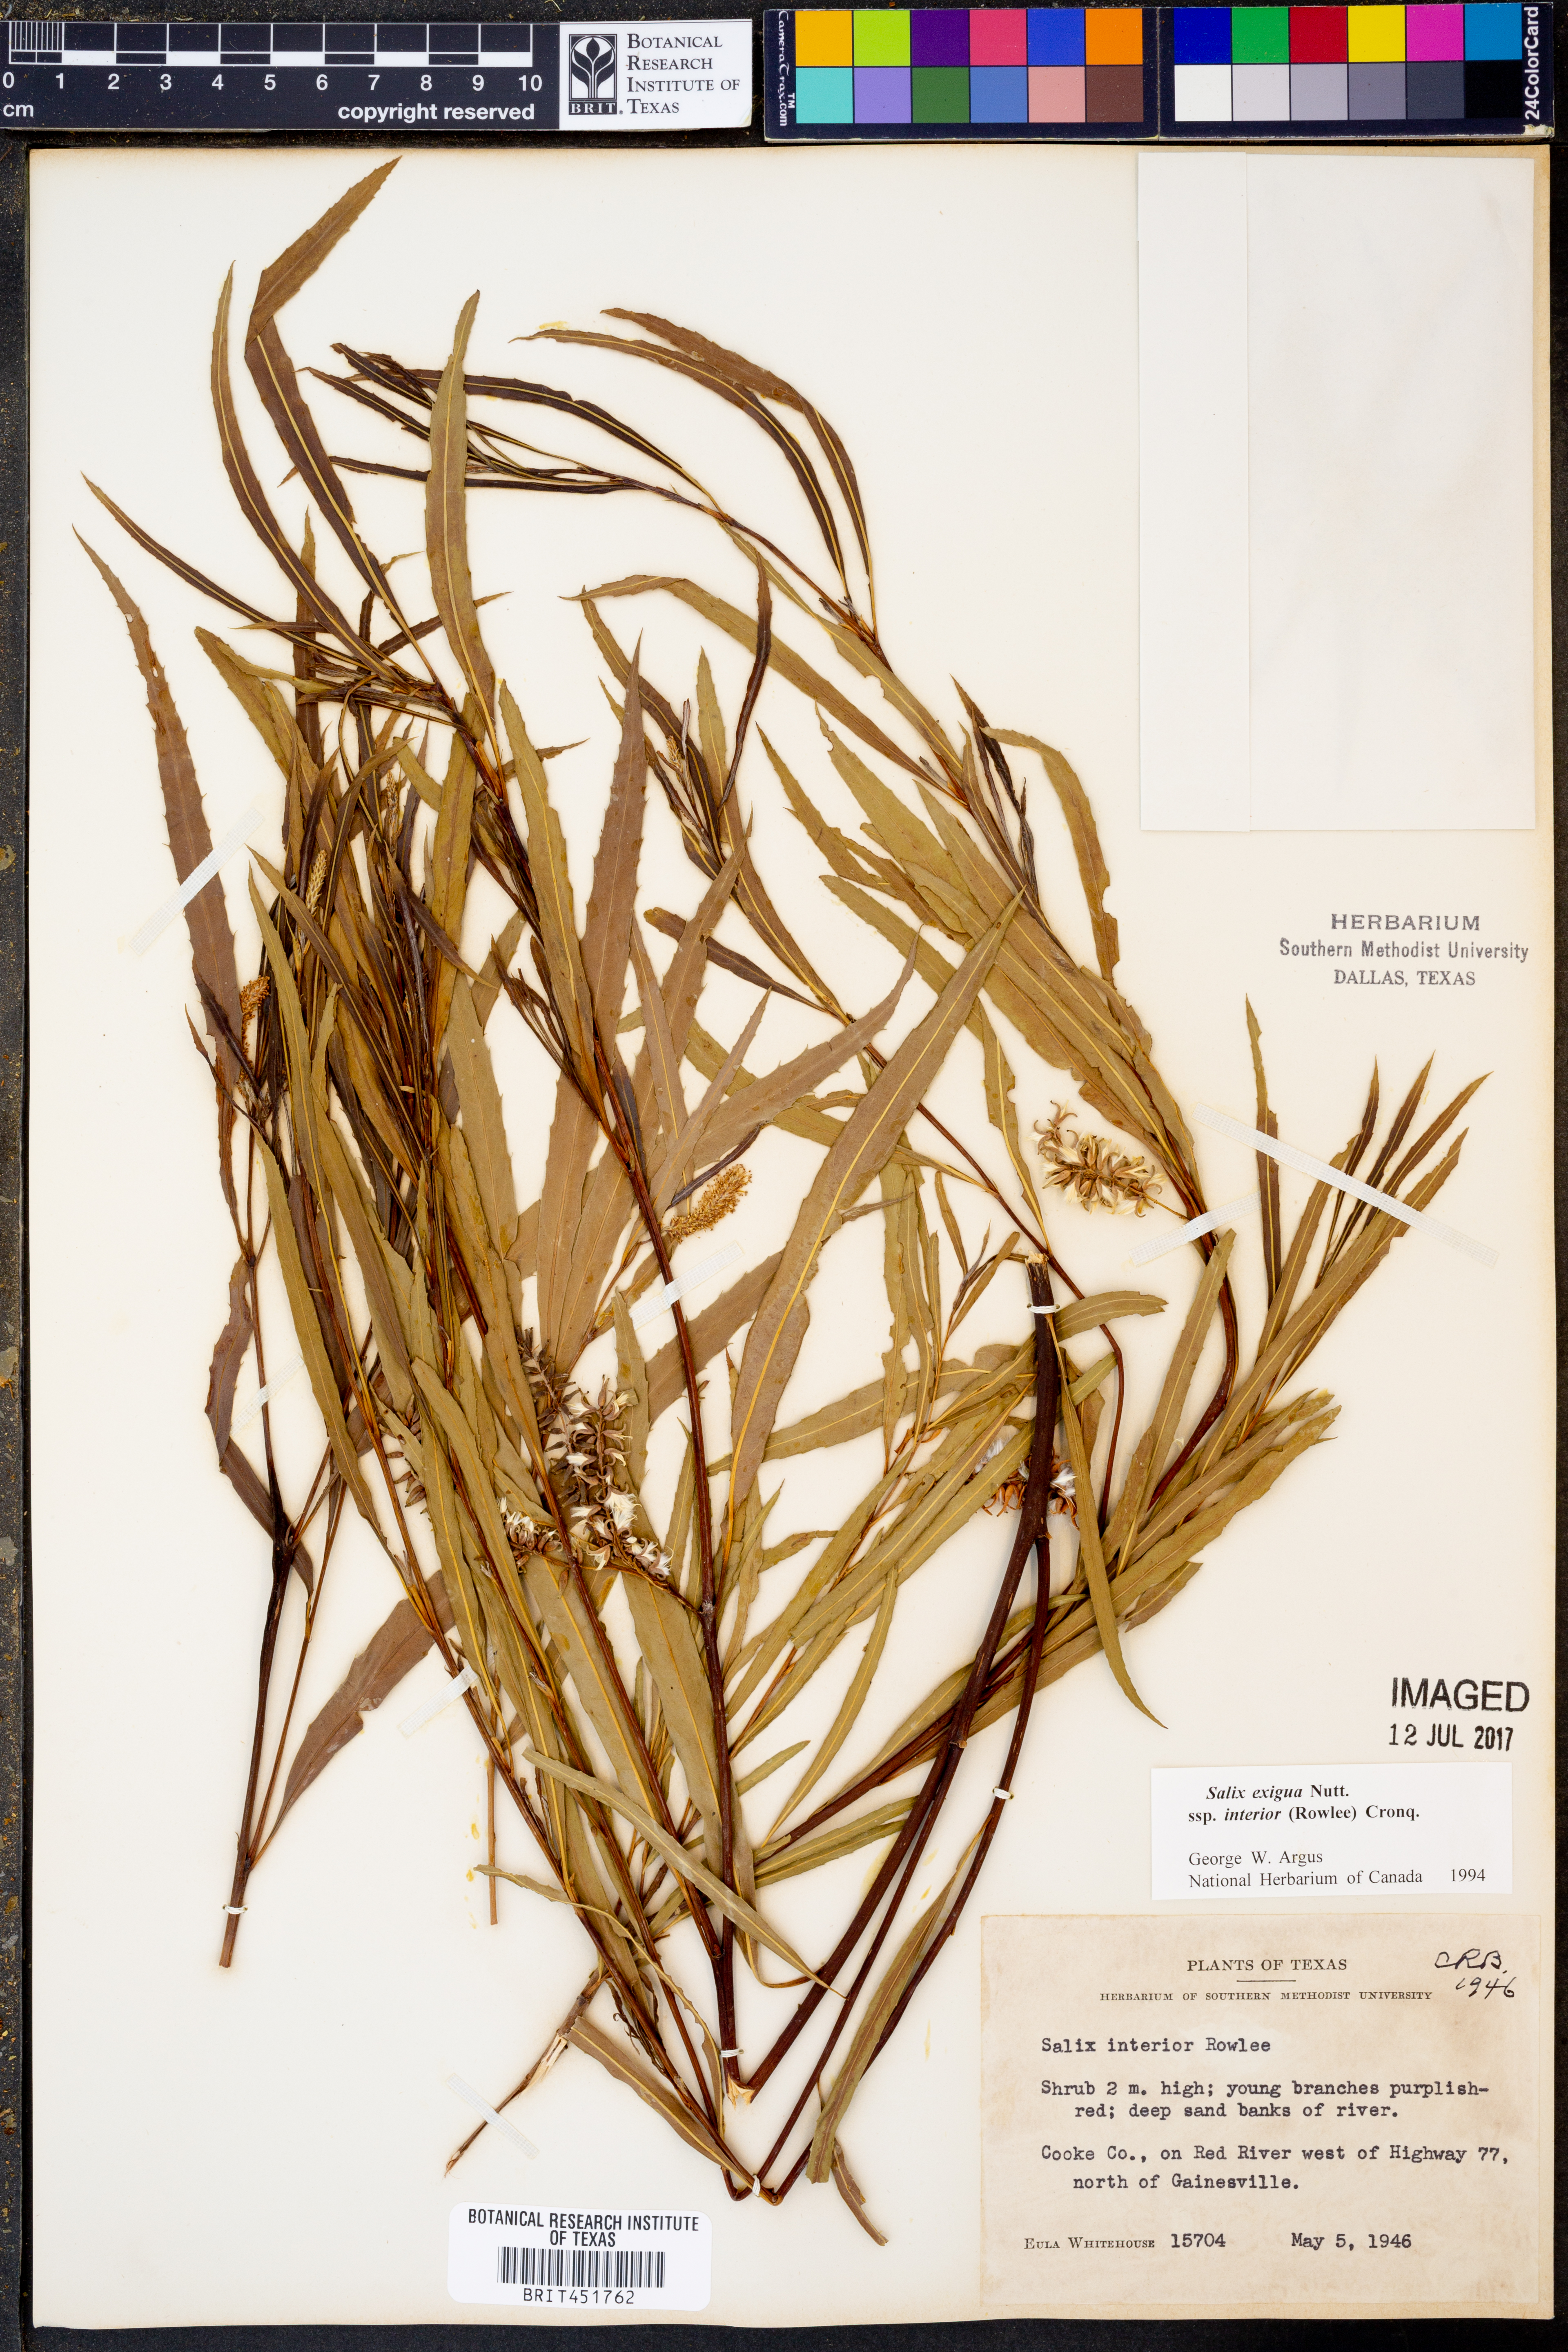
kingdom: Plantae
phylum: Tracheophyta
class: Magnoliopsida
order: Malpighiales
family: Salicaceae
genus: Salix
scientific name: Salix interior
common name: Sandbar willow
